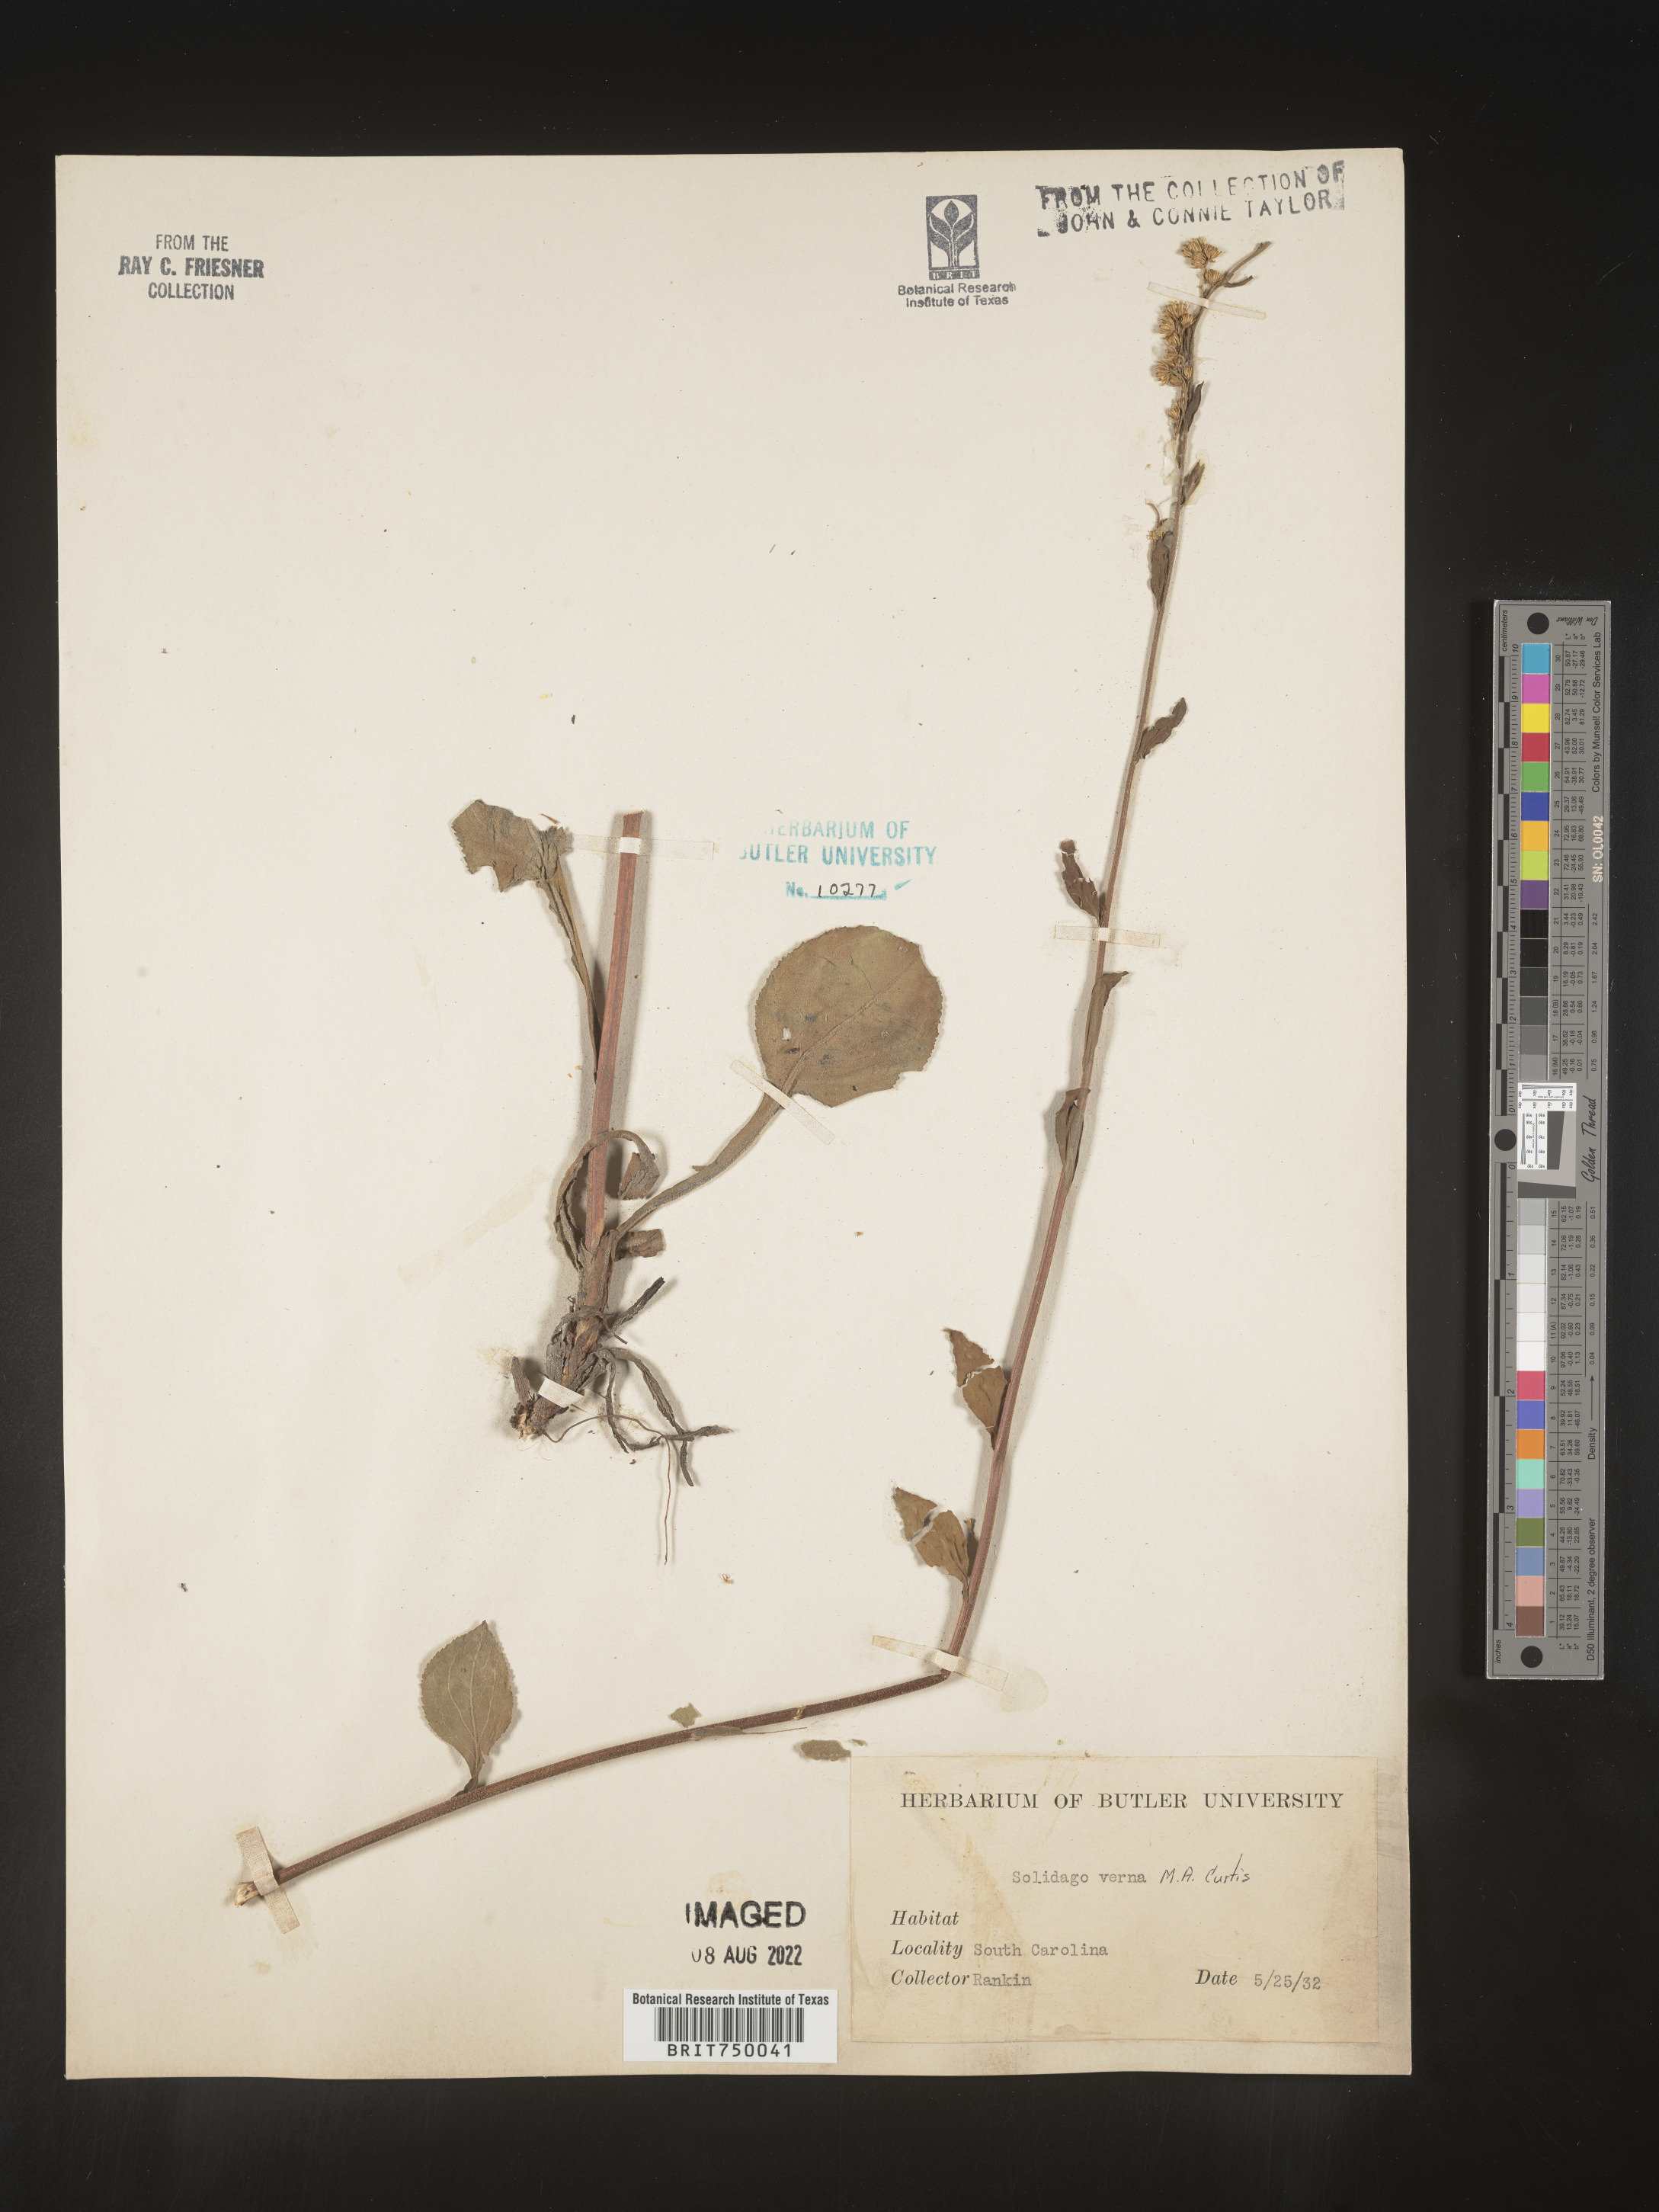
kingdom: Plantae
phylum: Tracheophyta
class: Magnoliopsida
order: Asterales
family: Asteraceae
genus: Solidago
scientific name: Solidago verna
